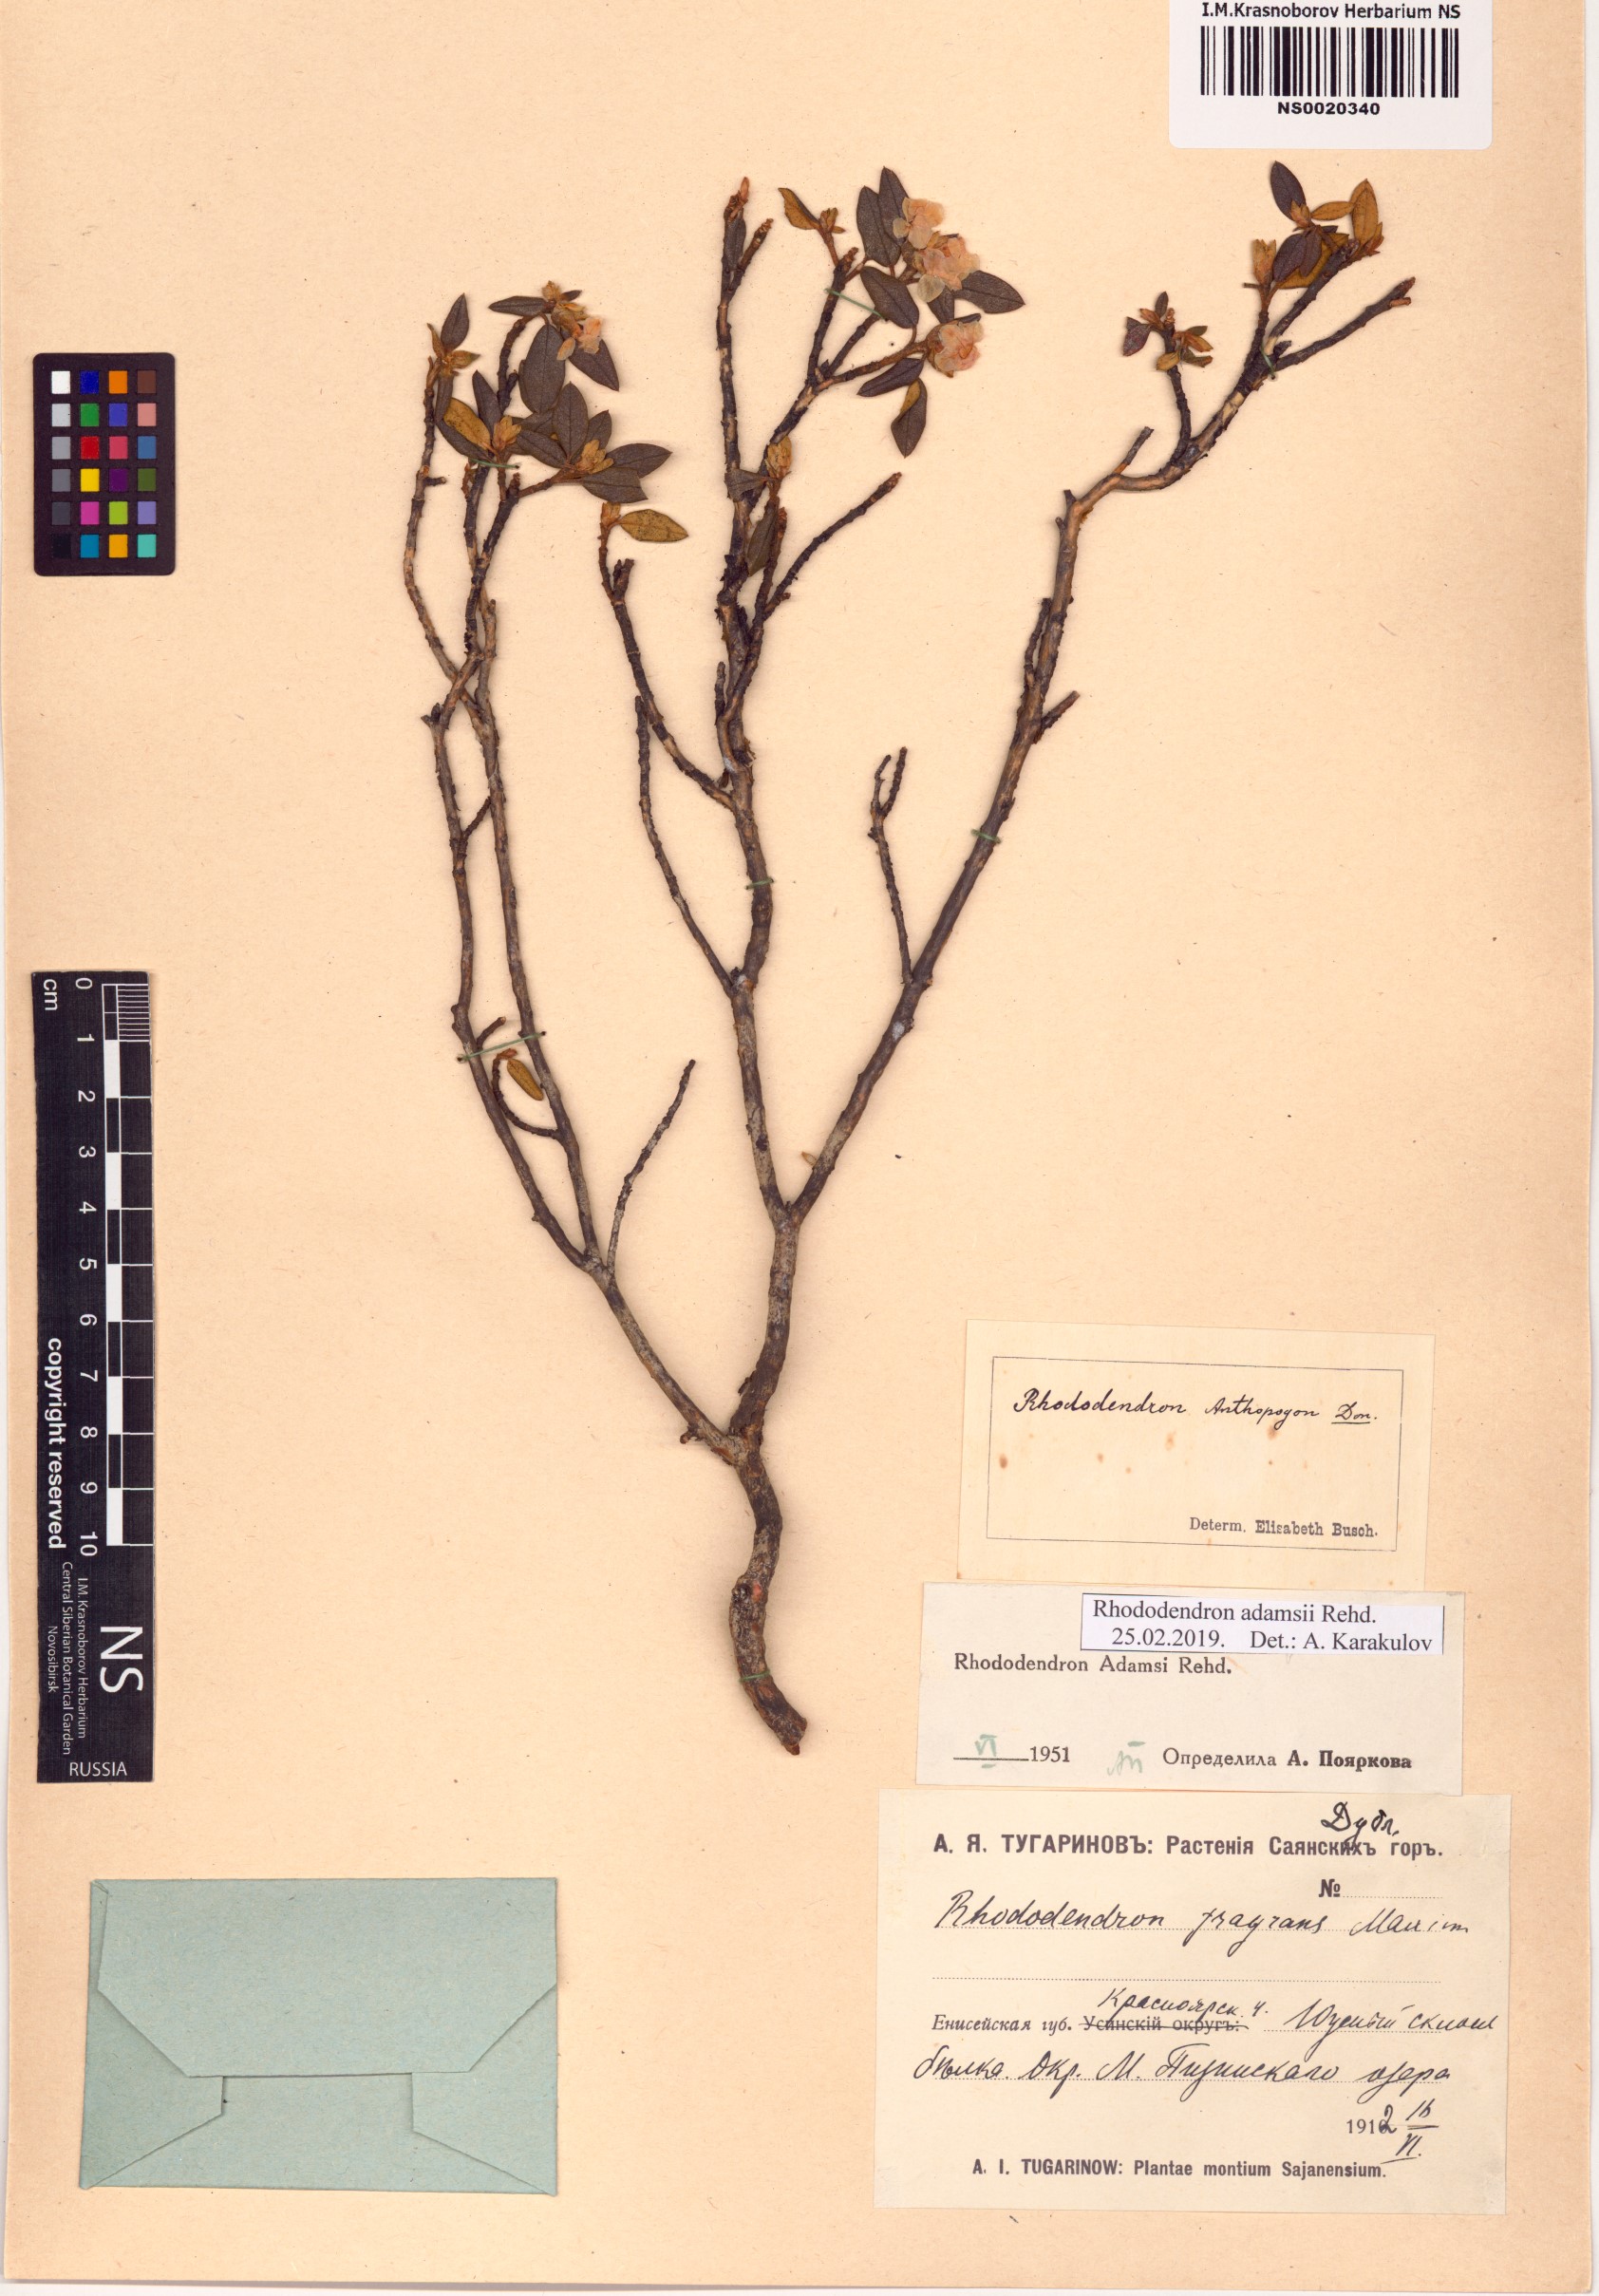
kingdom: Plantae
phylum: Tracheophyta
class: Magnoliopsida
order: Ericales
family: Ericaceae
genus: Rhododendron
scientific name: Rhododendron adamsii
